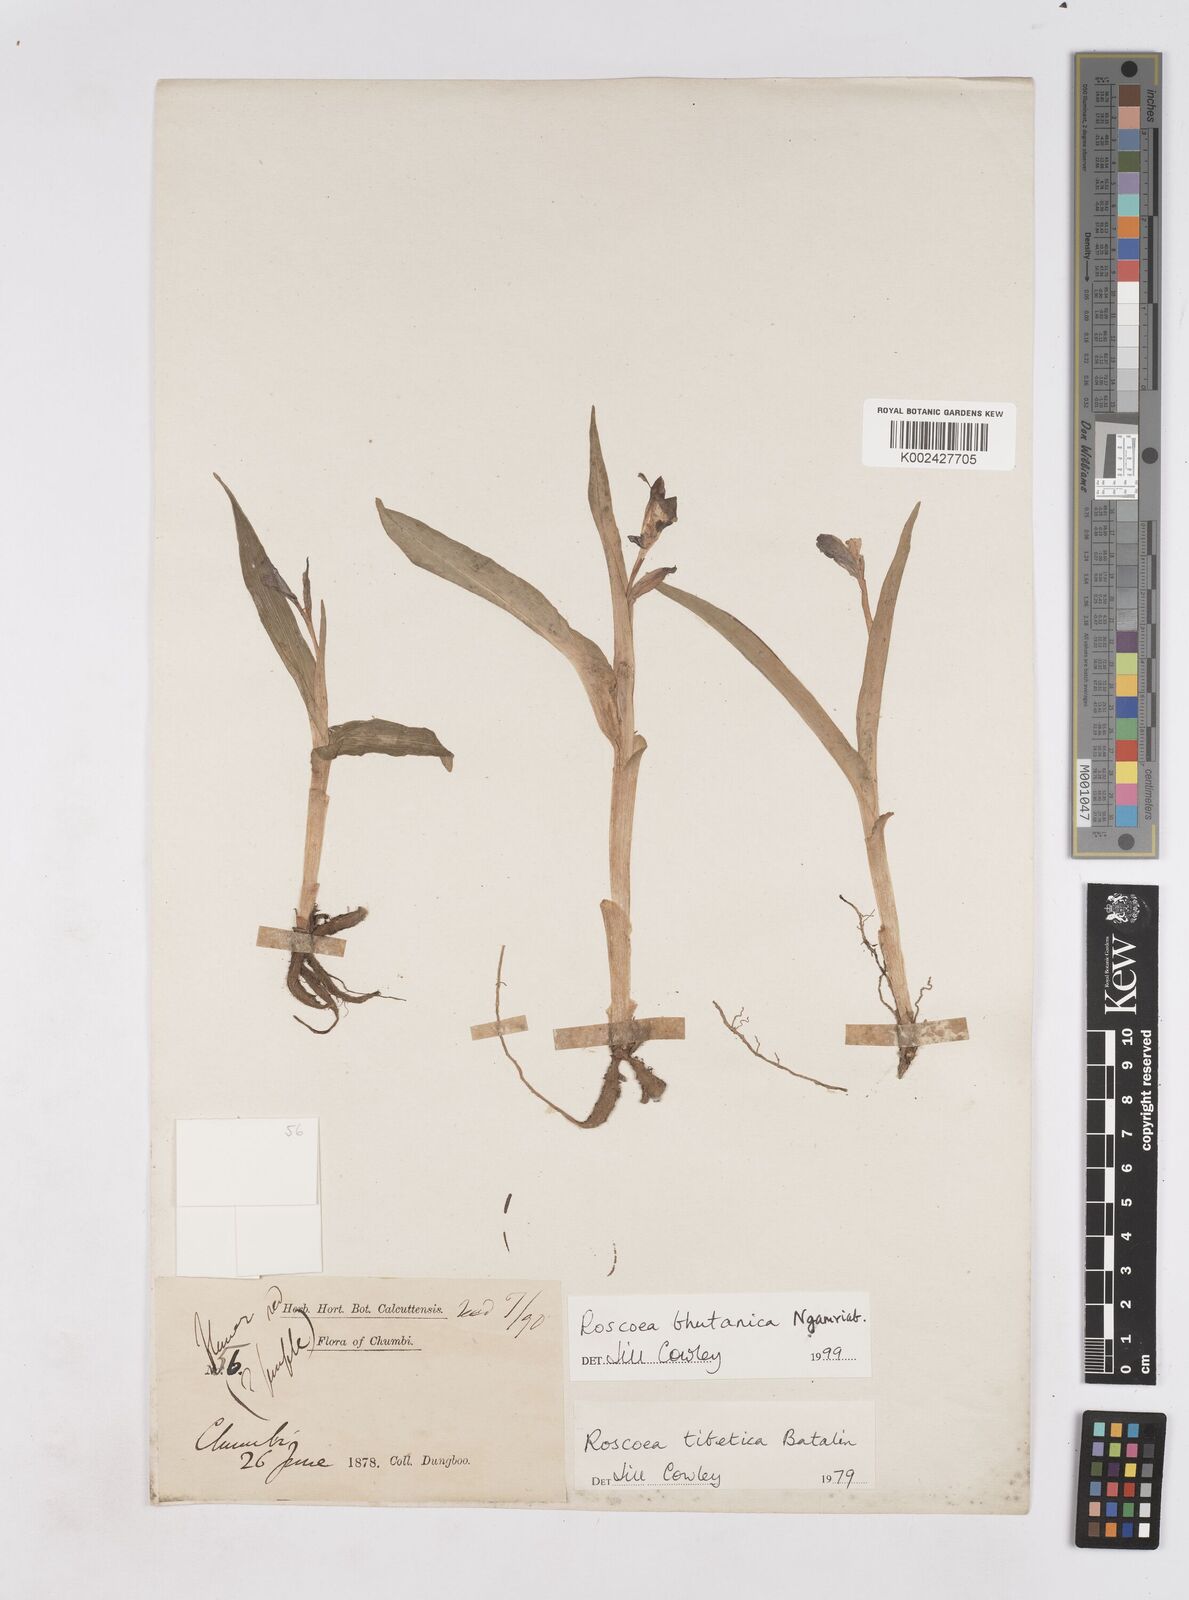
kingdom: Plantae
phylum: Tracheophyta
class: Liliopsida
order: Zingiberales
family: Zingiberaceae
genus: Roscoea
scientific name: Roscoea bhutanica
